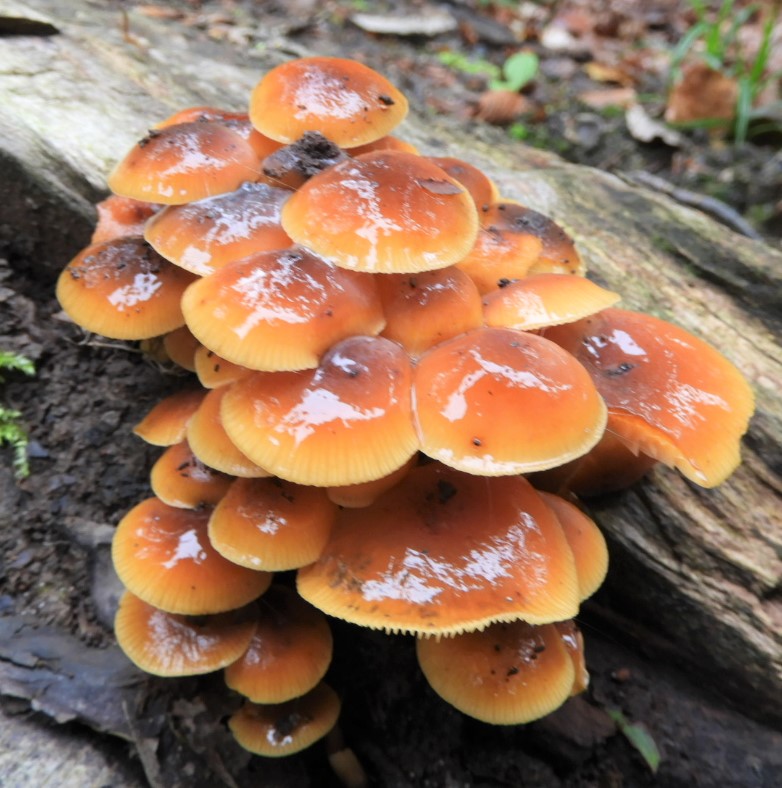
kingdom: Fungi
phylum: Basidiomycota
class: Agaricomycetes
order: Agaricales
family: Physalacriaceae
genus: Flammulina
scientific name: Flammulina velutipes
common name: gul fløjlsfod
